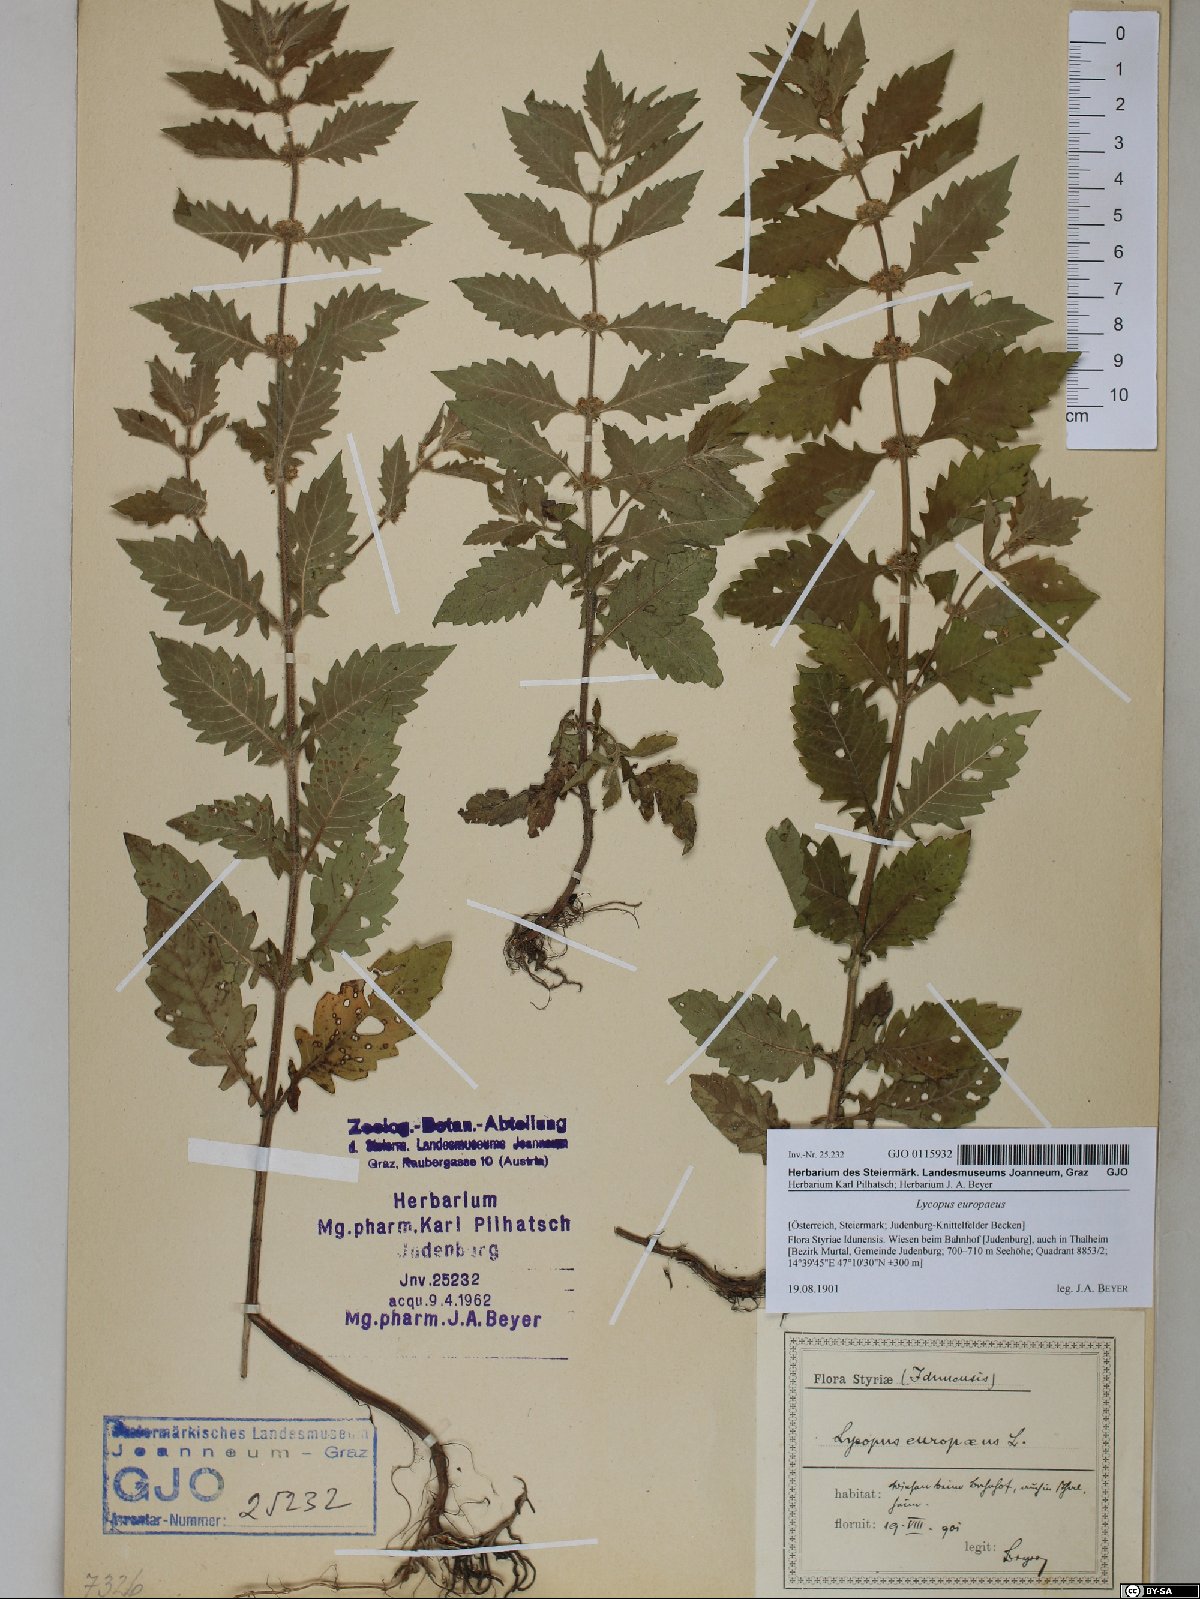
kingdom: Plantae
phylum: Tracheophyta
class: Magnoliopsida
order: Lamiales
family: Lamiaceae
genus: Lycopus
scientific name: Lycopus europaeus
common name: European bugleweed
